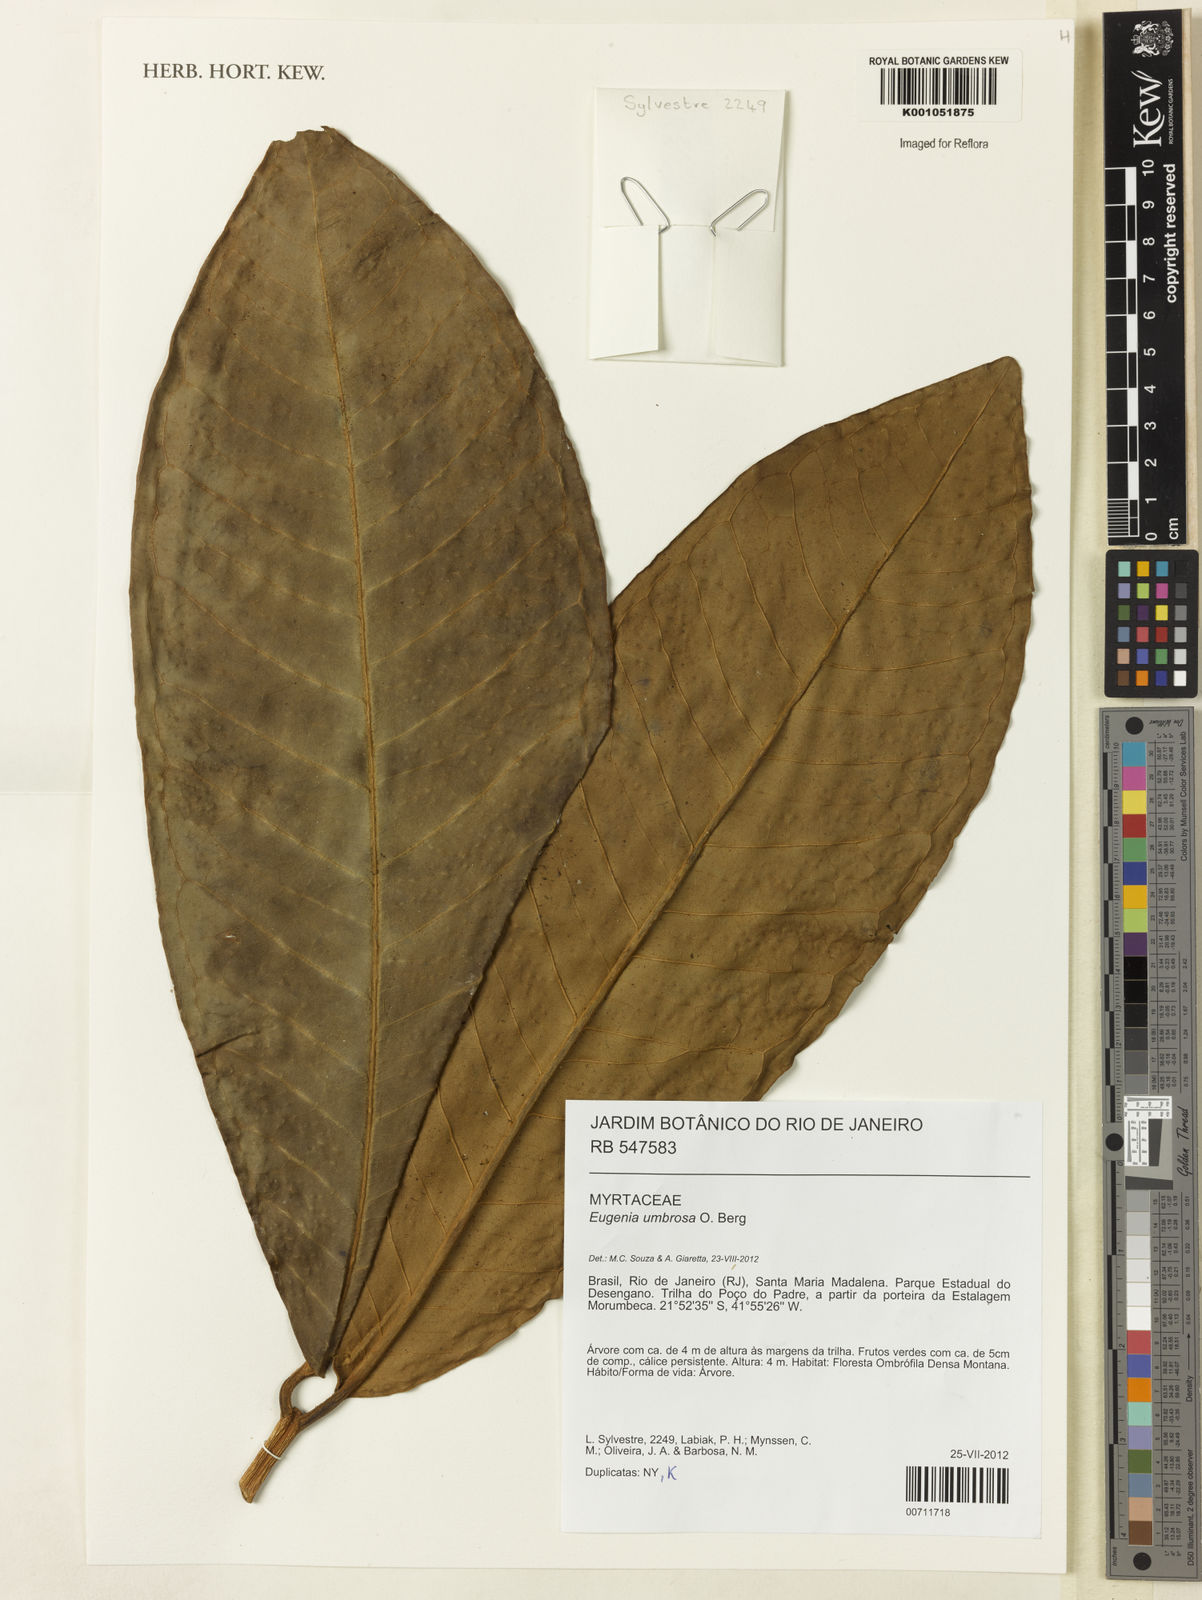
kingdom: Plantae
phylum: Tracheophyta
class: Magnoliopsida
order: Myrtales
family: Myrtaceae
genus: Eugenia
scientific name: Eugenia umbrosa
